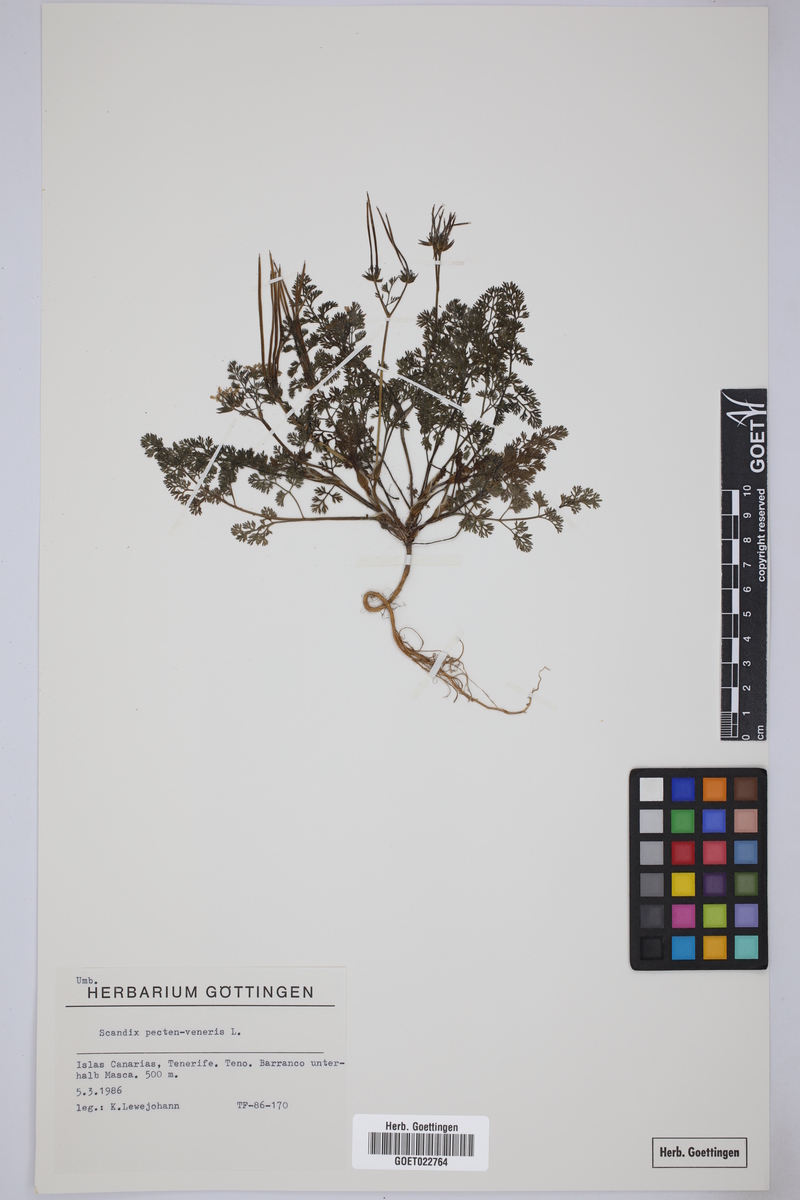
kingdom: Plantae
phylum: Tracheophyta
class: Magnoliopsida
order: Apiales
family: Apiaceae
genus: Scandix
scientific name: Scandix pecten-veneris
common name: Shepherd's-needle
